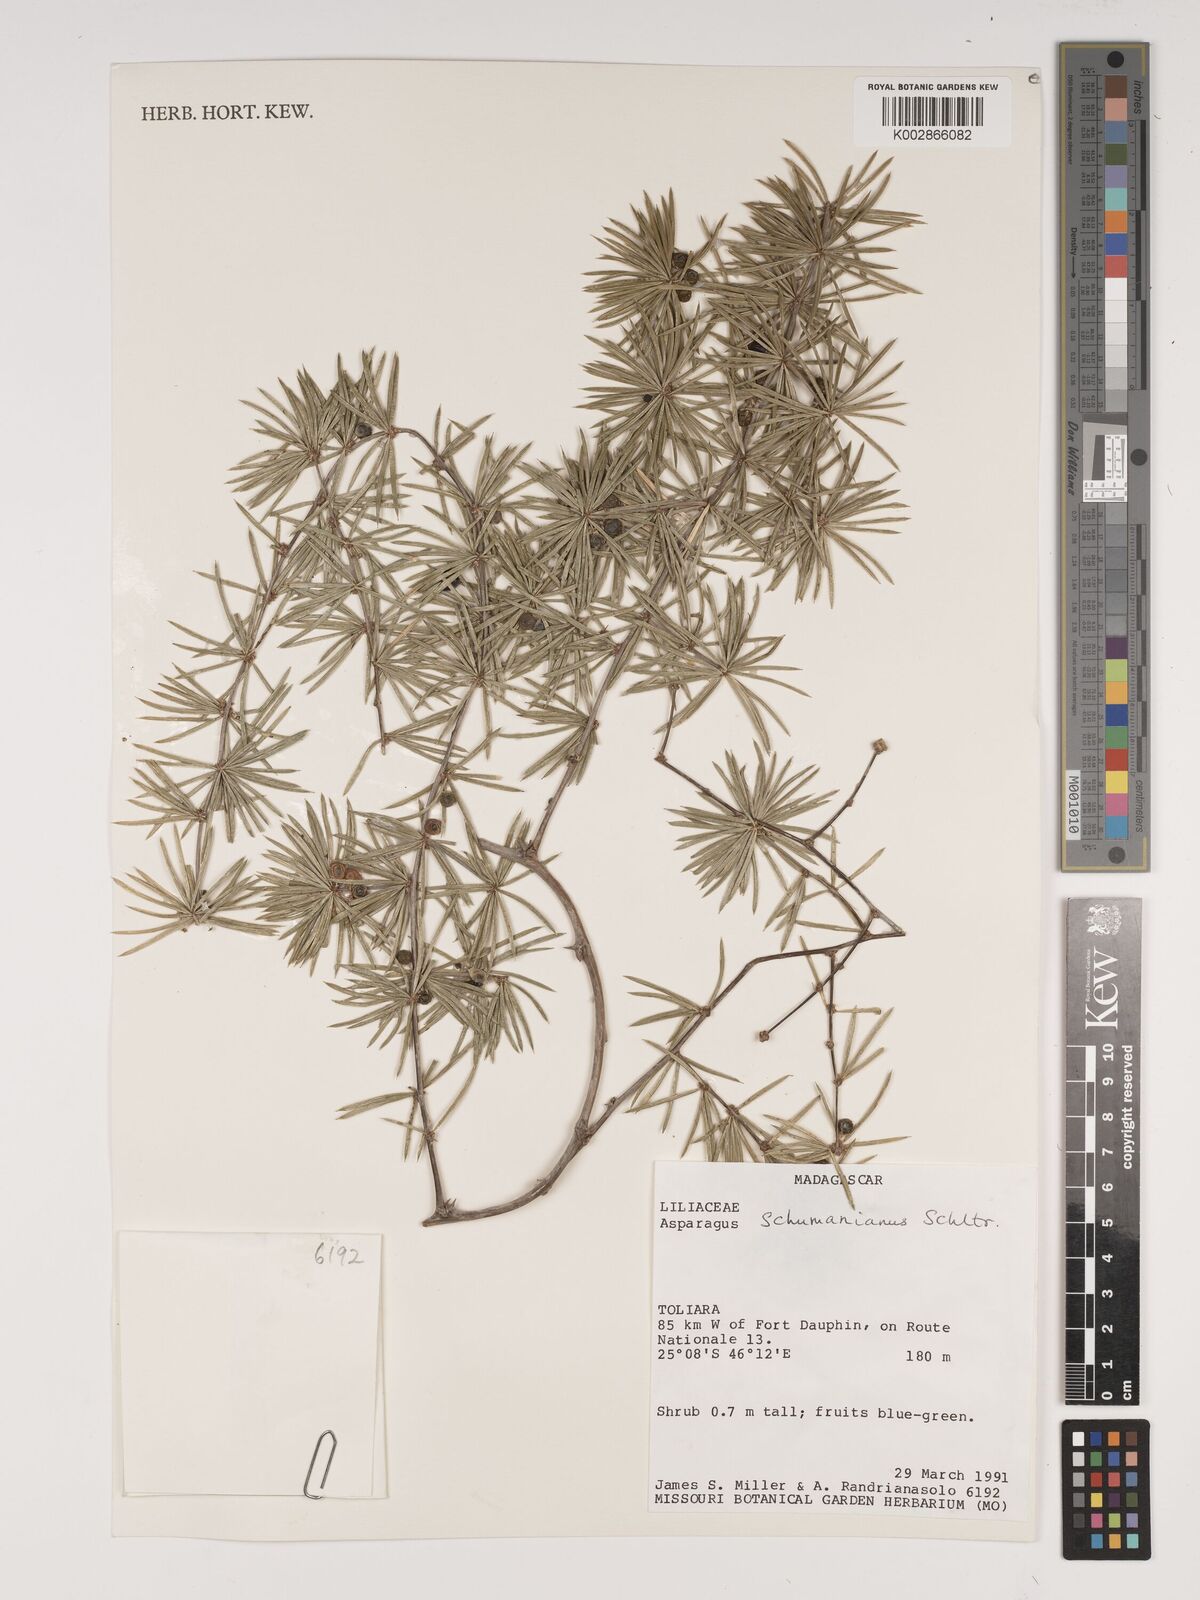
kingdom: Plantae
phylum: Tracheophyta
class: Liliopsida
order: Asparagales
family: Asparagaceae
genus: Asparagus
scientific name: Asparagus schumanianus
